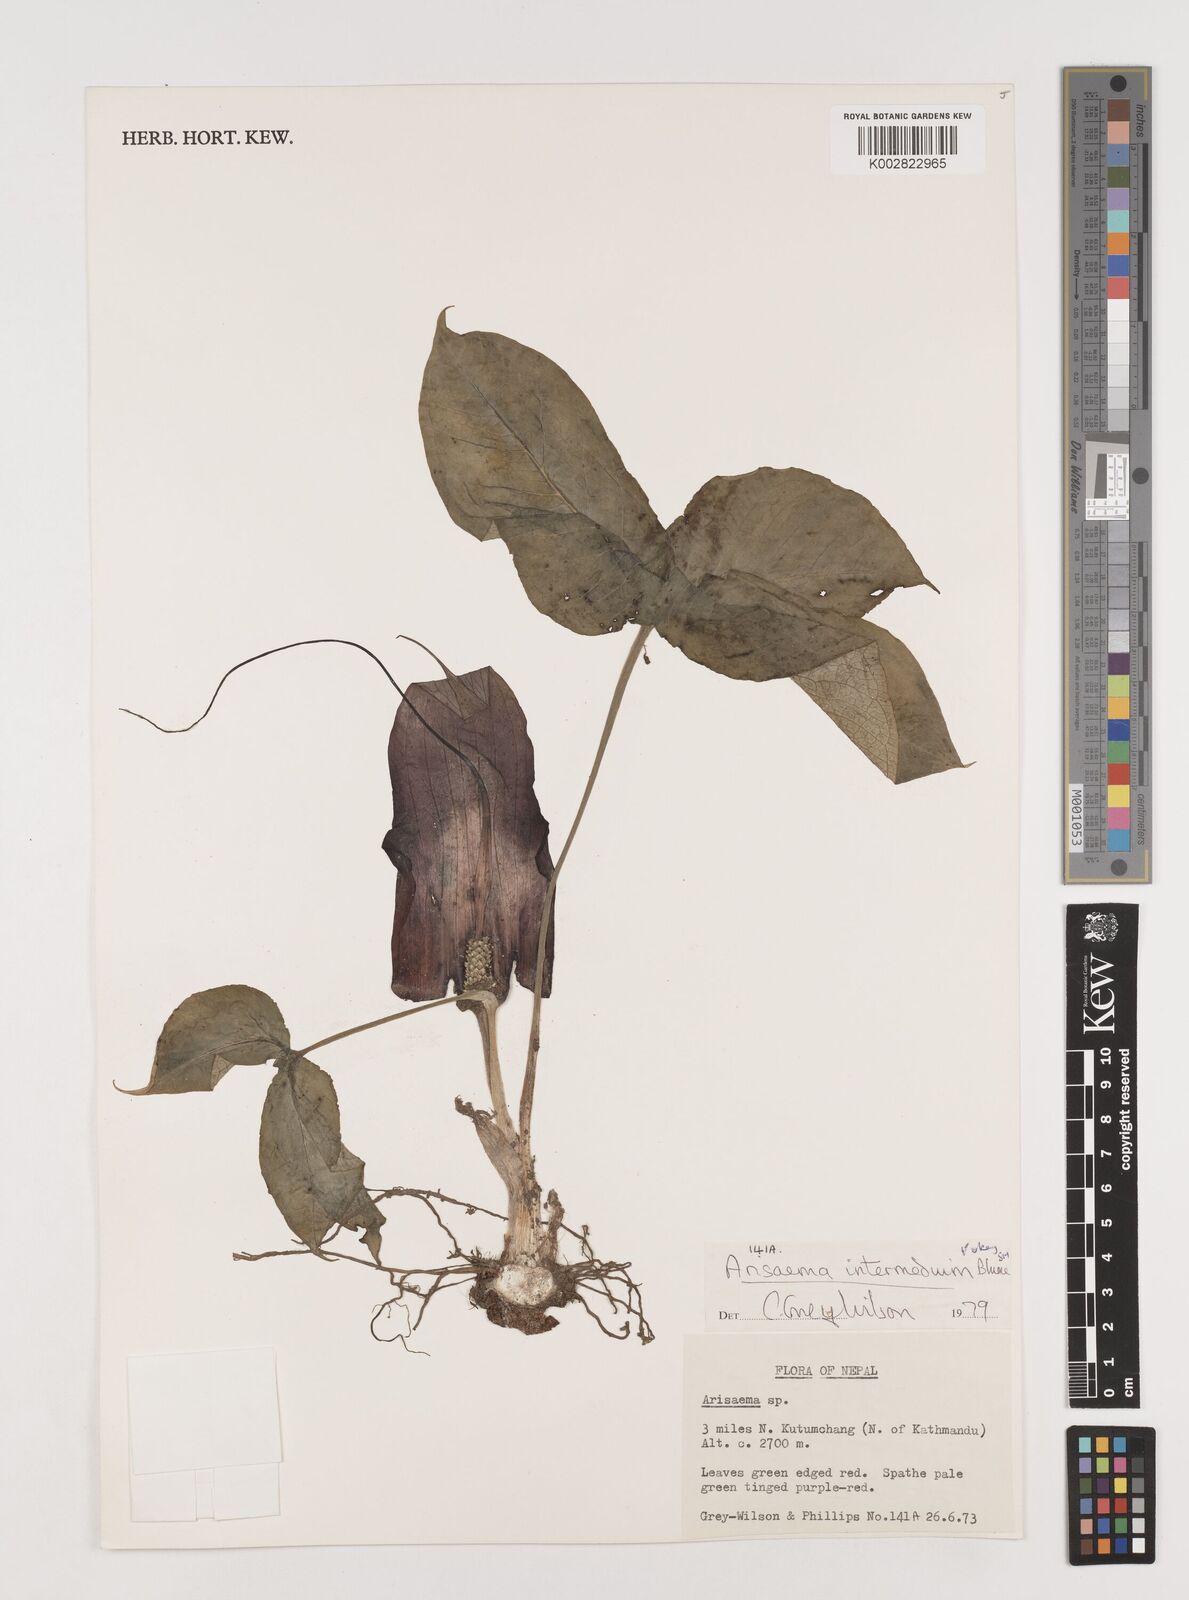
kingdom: Plantae
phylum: Tracheophyta
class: Liliopsida
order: Alismatales
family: Araceae
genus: Arisaema
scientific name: Arisaema intermedium
